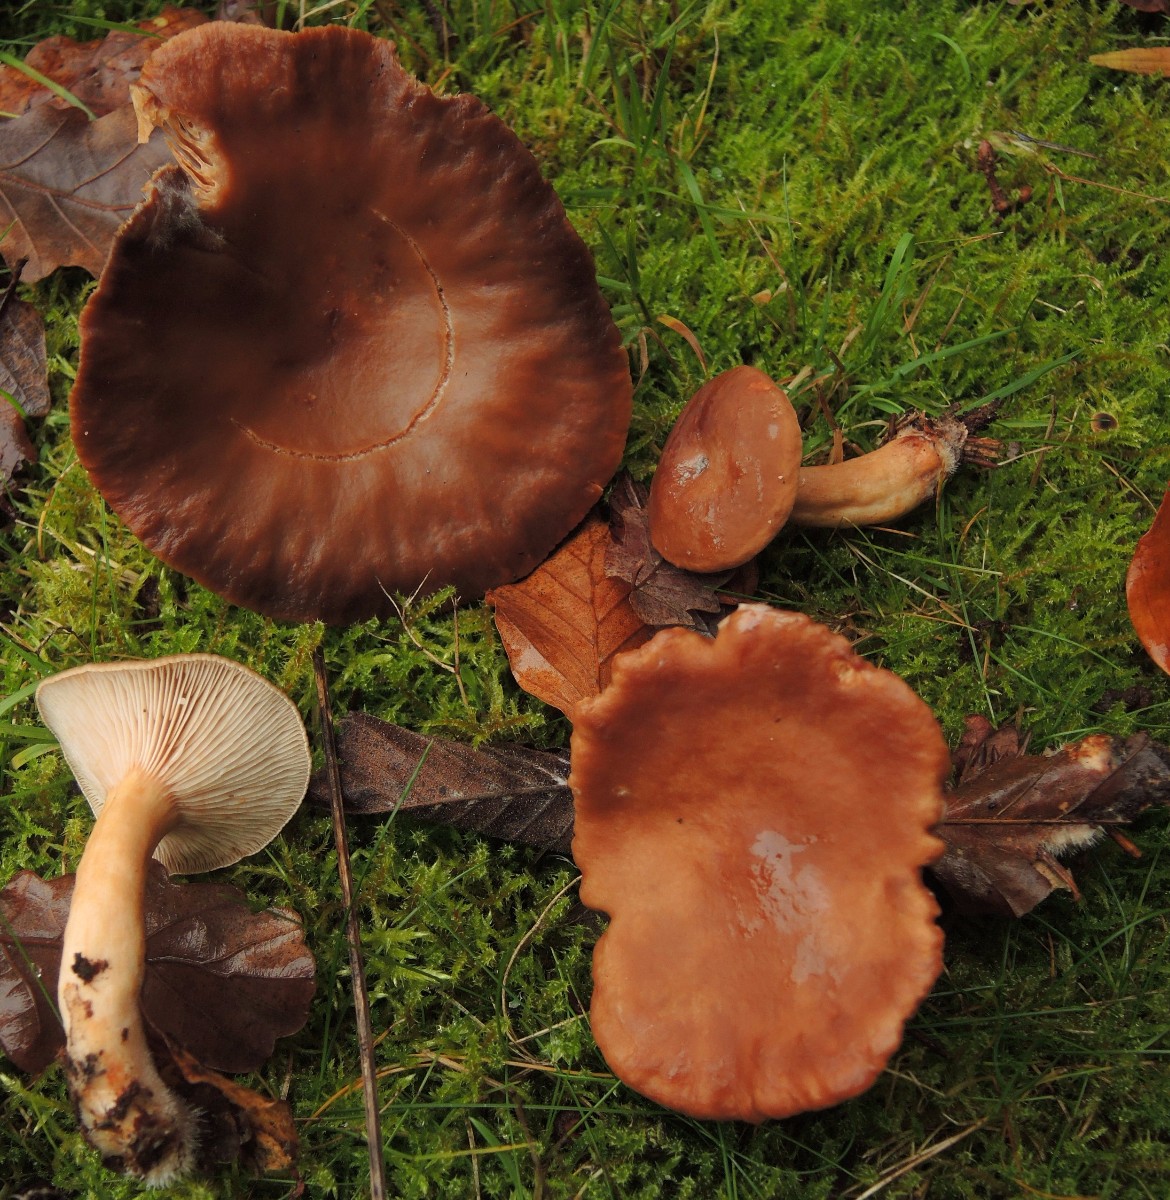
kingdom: Fungi
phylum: Basidiomycota
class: Agaricomycetes
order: Russulales
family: Russulaceae
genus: Lactarius
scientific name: Lactarius subdulcis
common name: sødlig mælkehat
